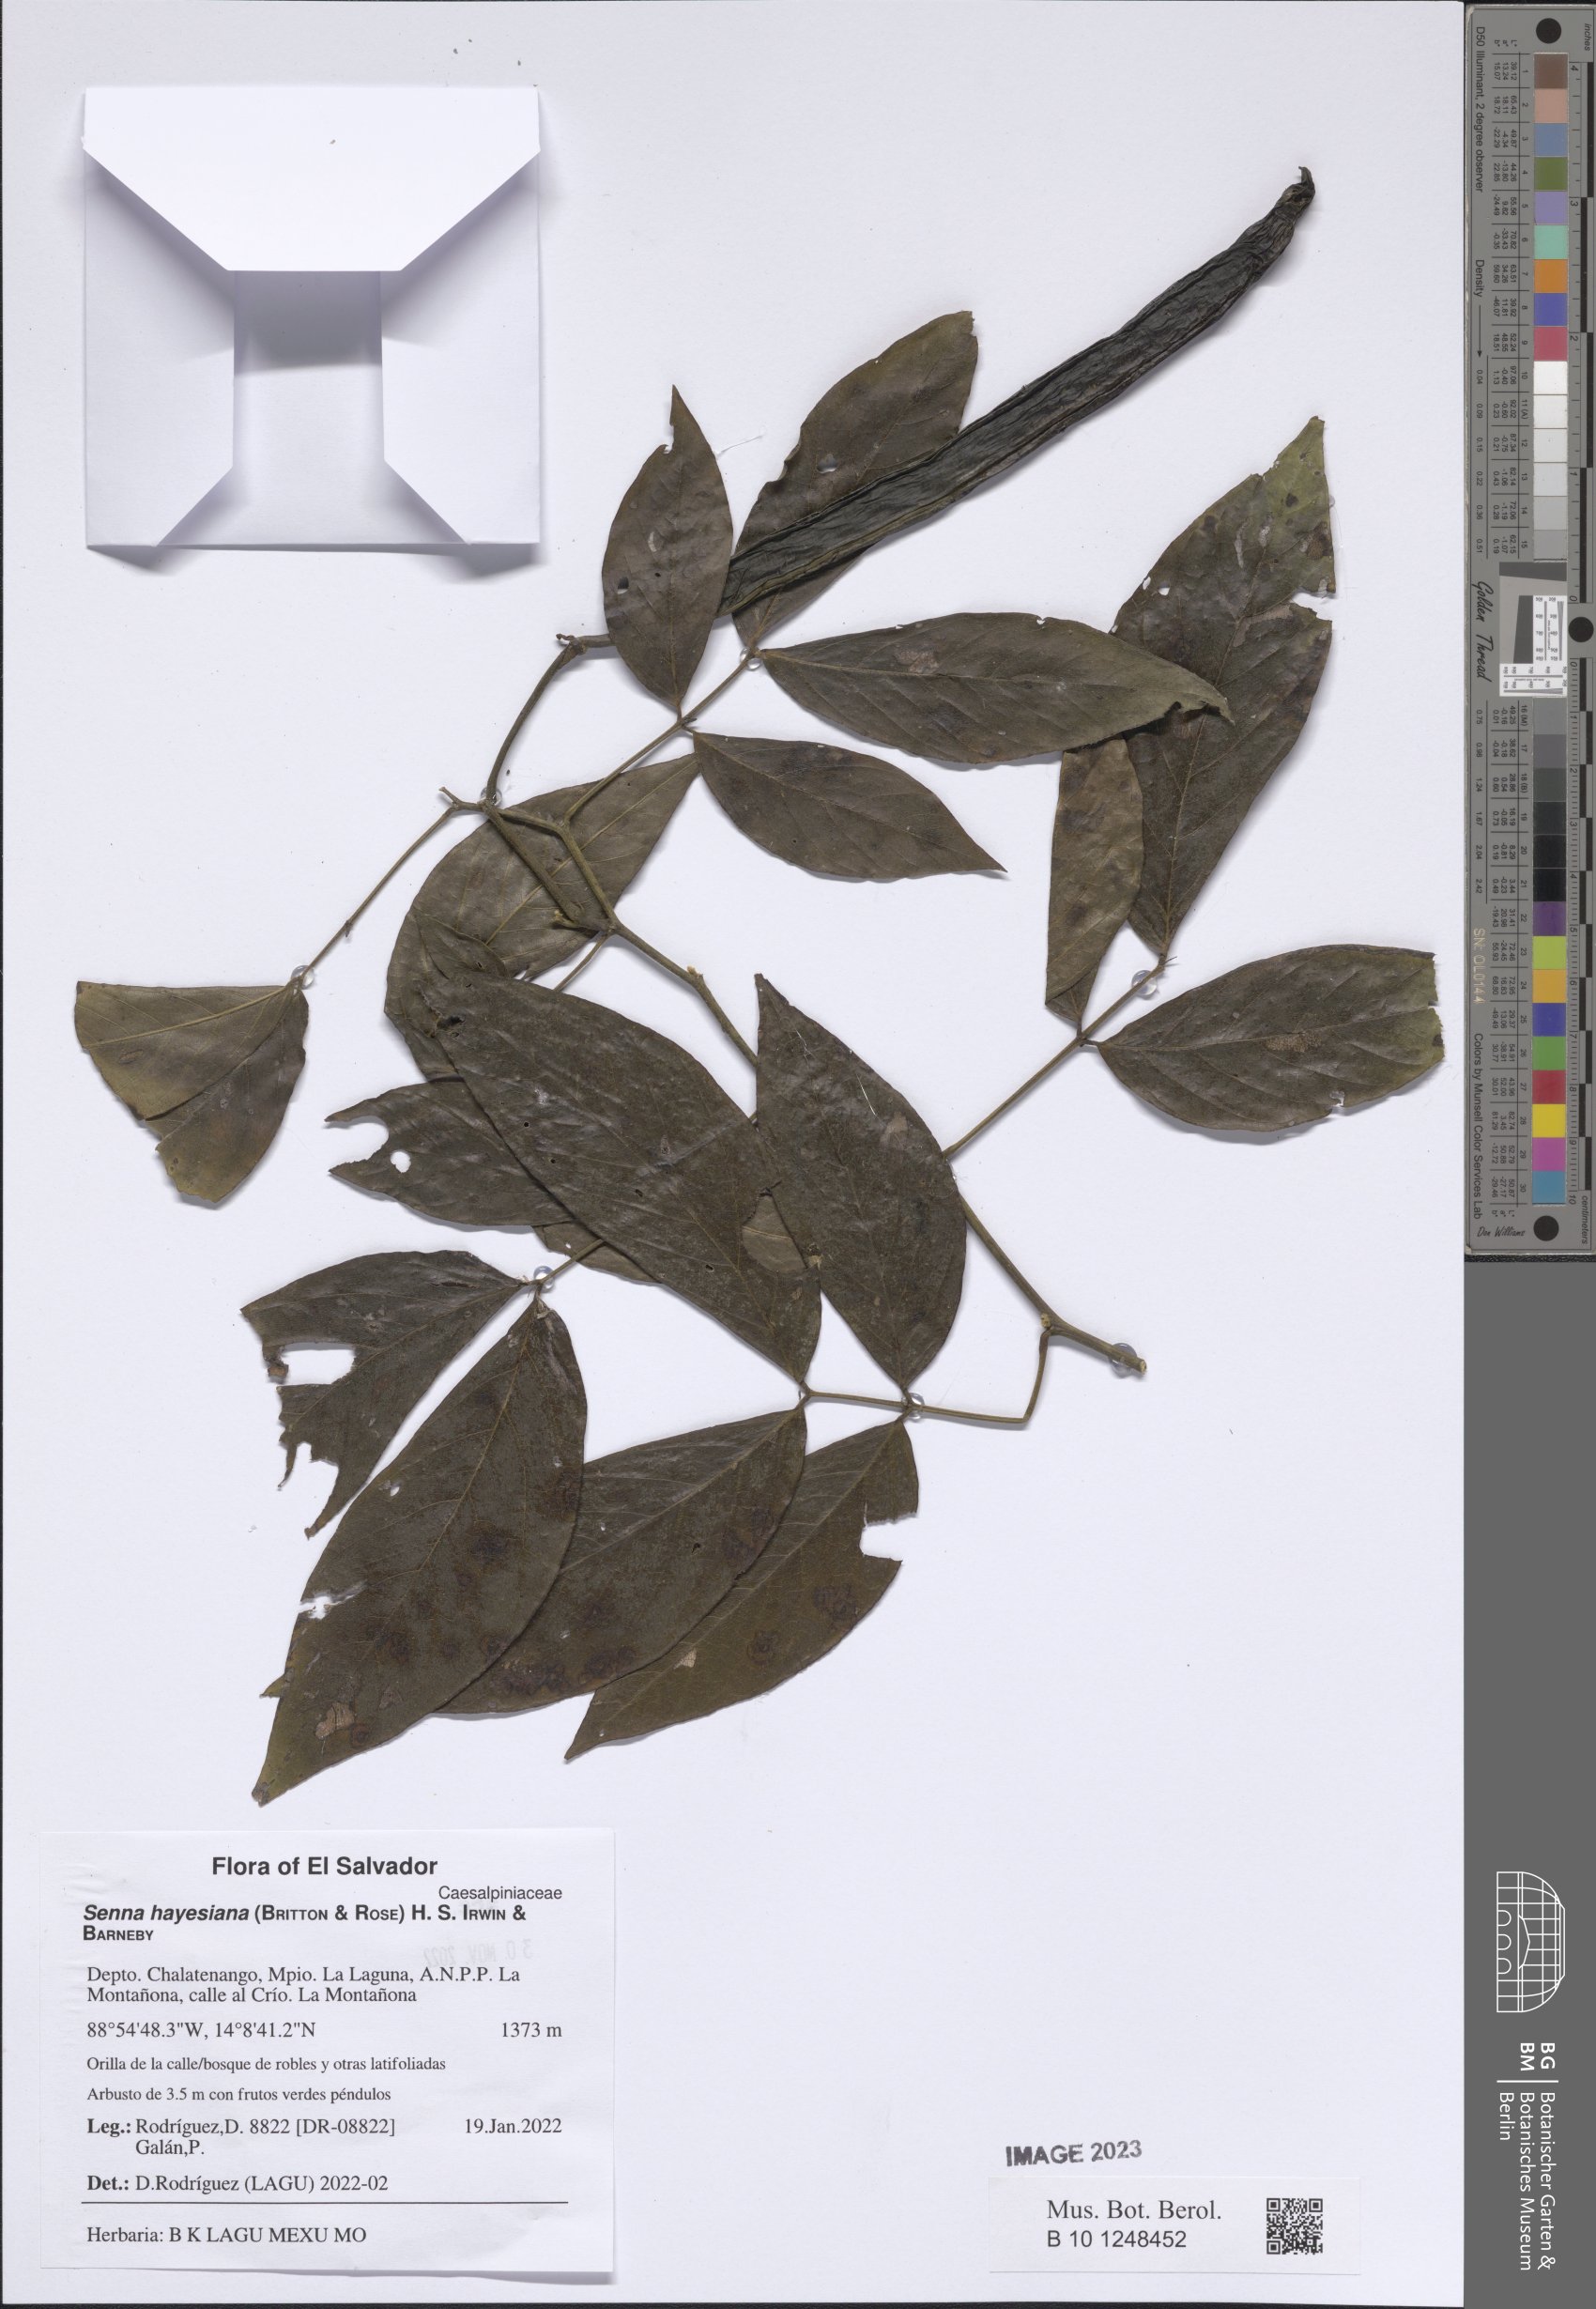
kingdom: Plantae
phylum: Tracheophyta
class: Magnoliopsida
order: Fabales
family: Fabaceae
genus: Senna
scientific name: Senna hayesiana
